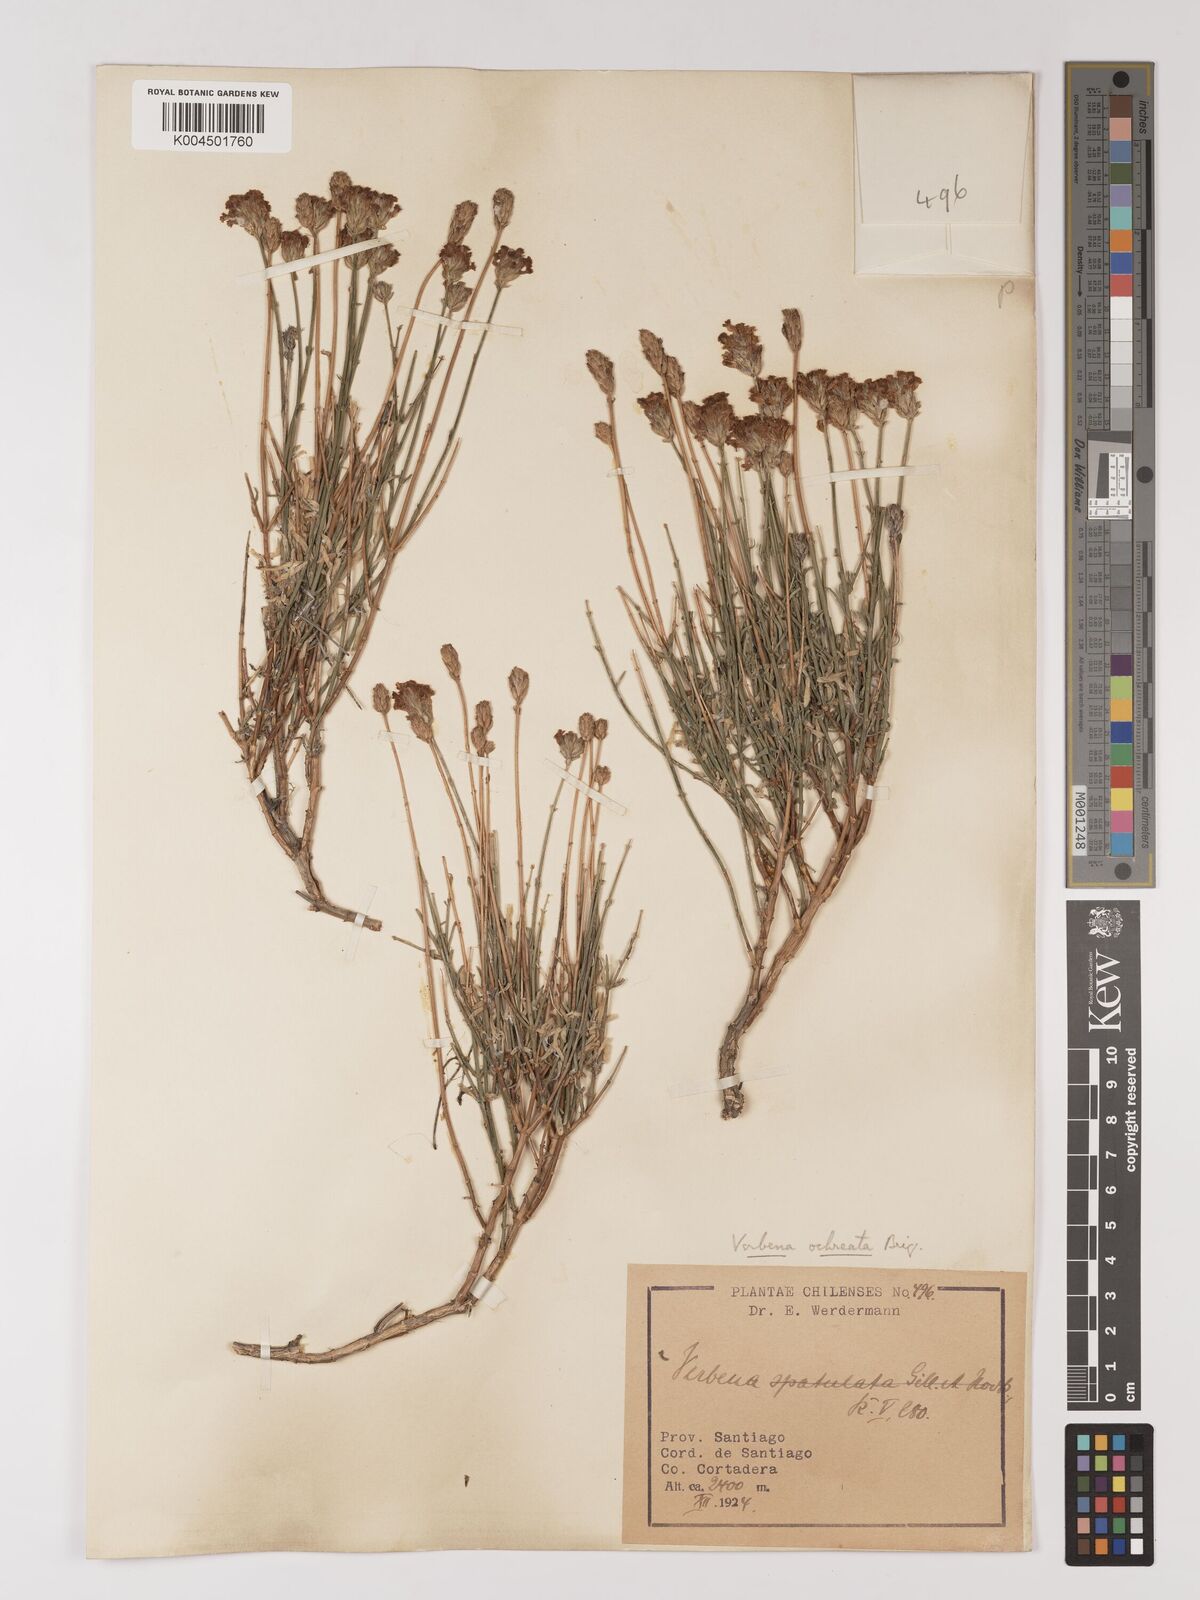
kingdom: Plantae
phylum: Tracheophyta
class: Magnoliopsida
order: Lamiales
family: Verbenaceae
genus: Junellia
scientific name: Junellia spathulata
